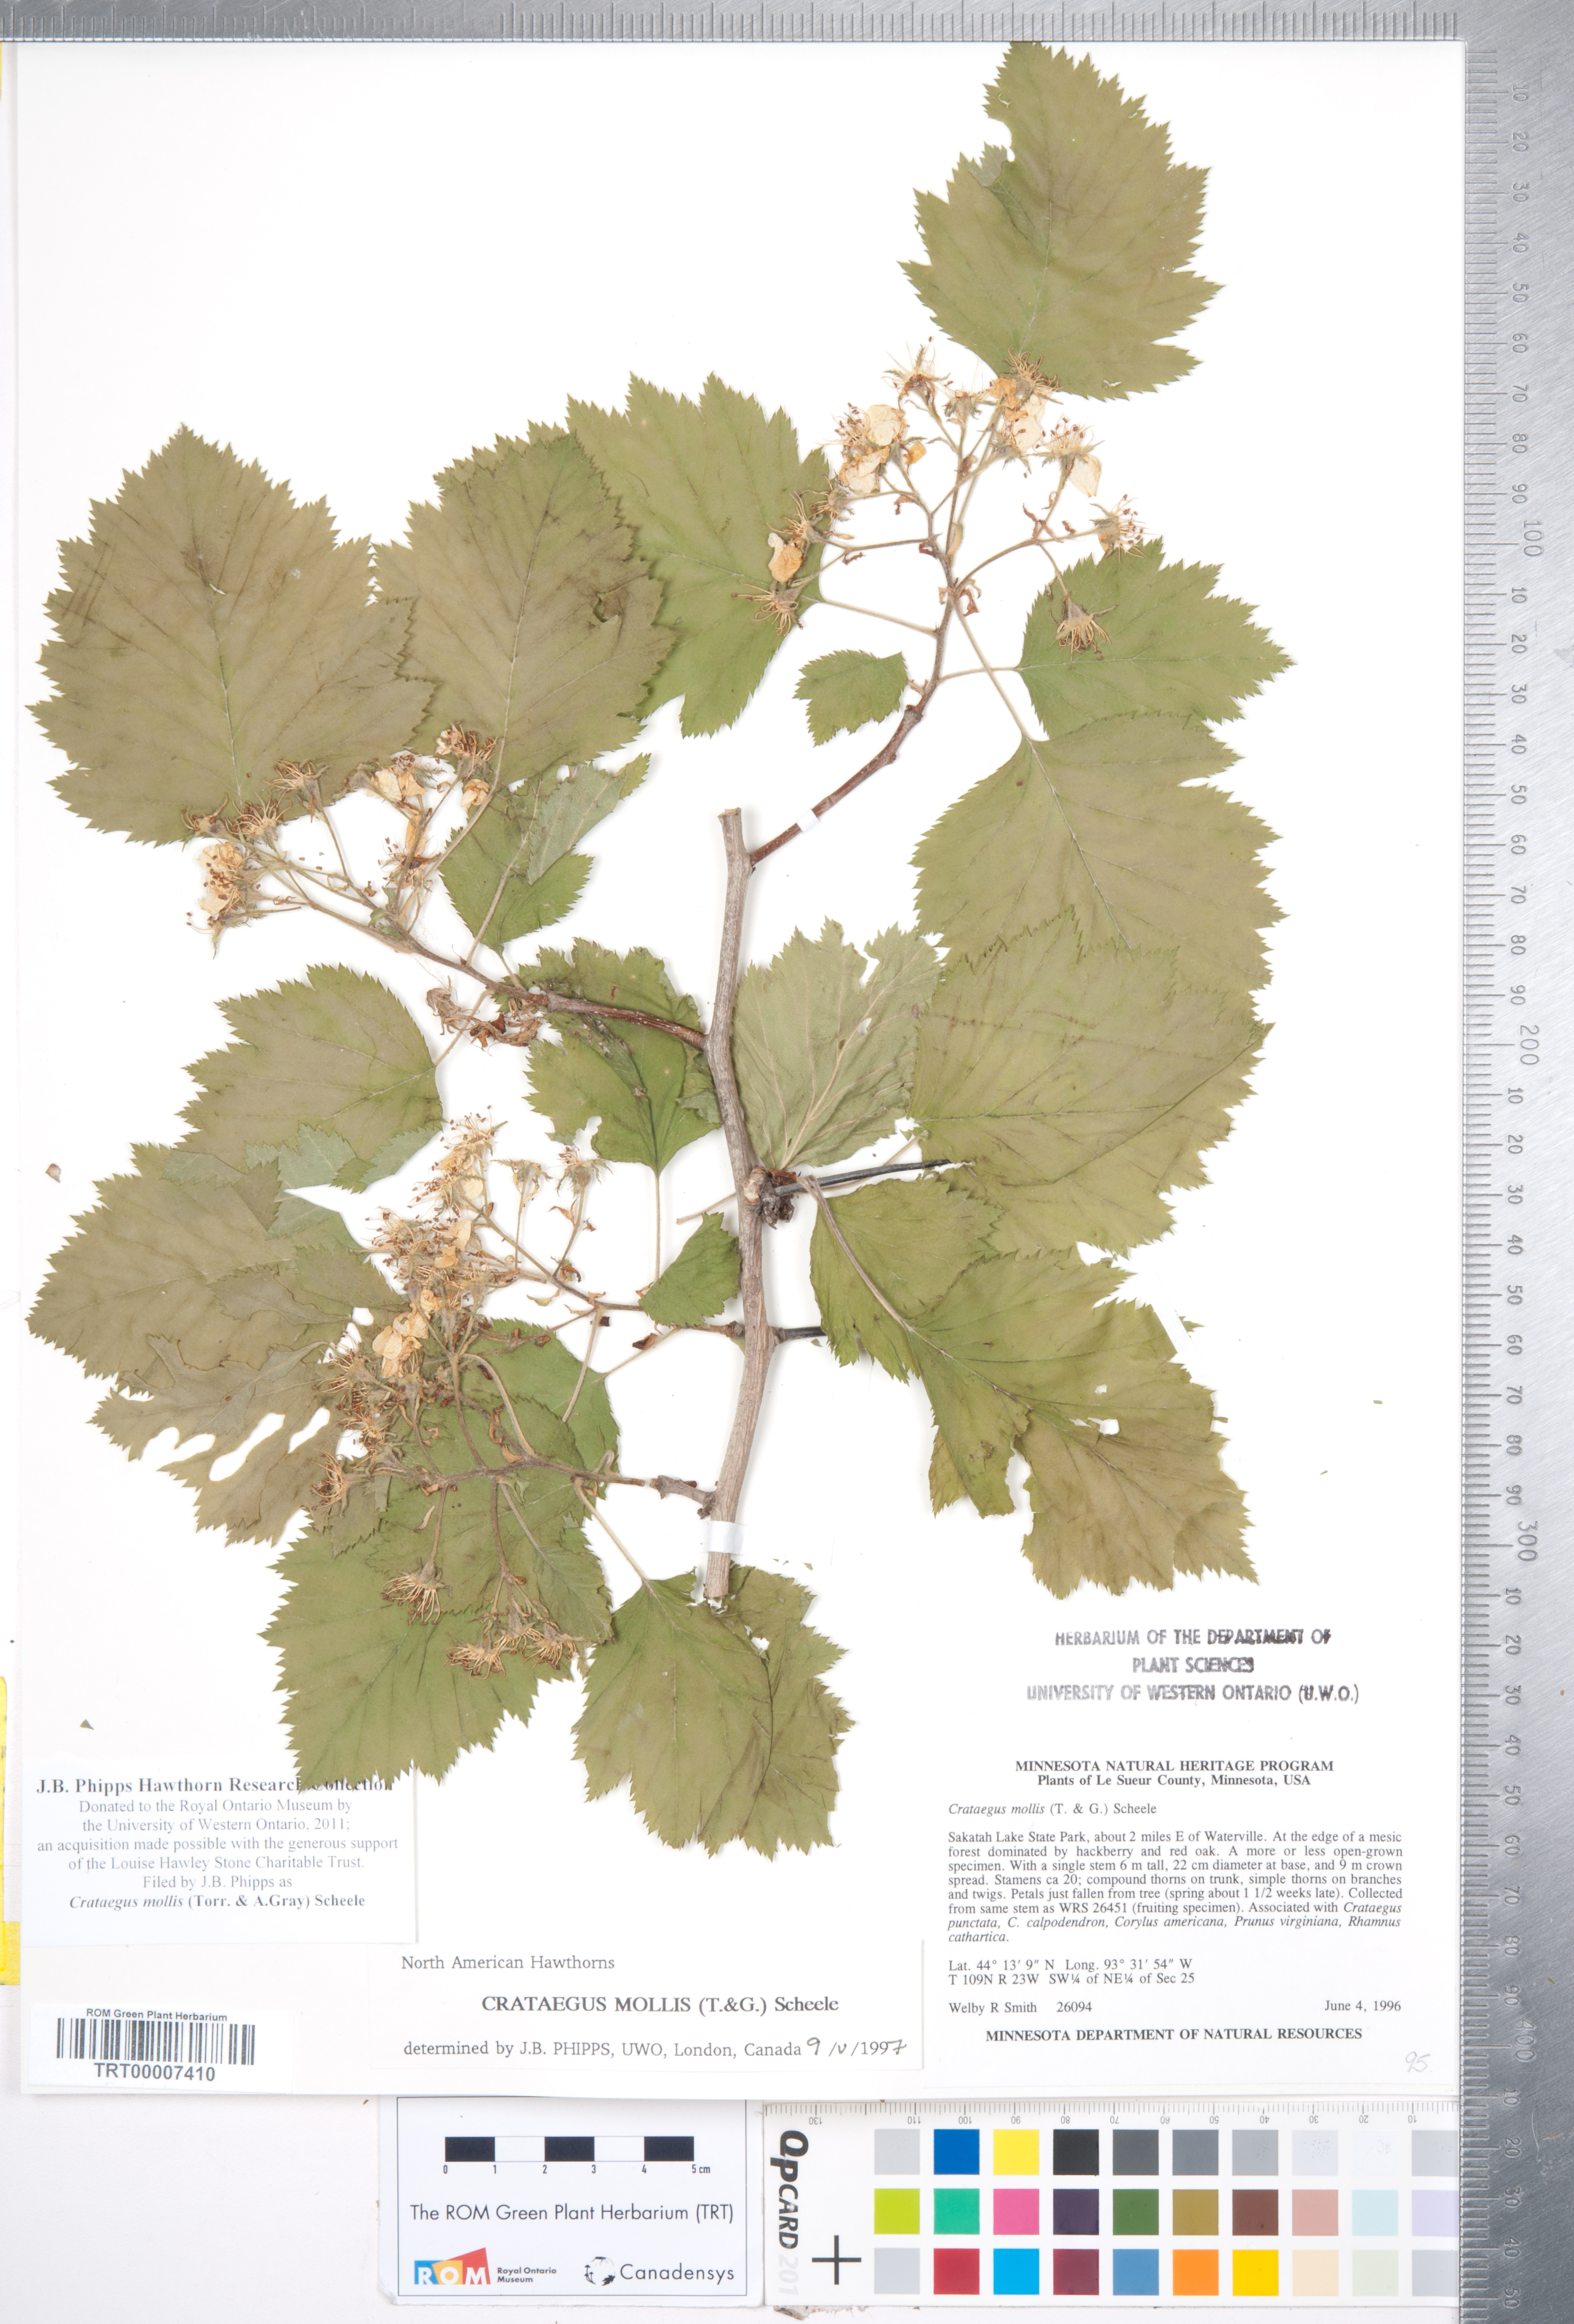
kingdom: Plantae
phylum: Tracheophyta
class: Magnoliopsida
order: Rosales
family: Rosaceae
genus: Crataegus
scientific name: Crataegus mollis
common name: Downy hawthorn
